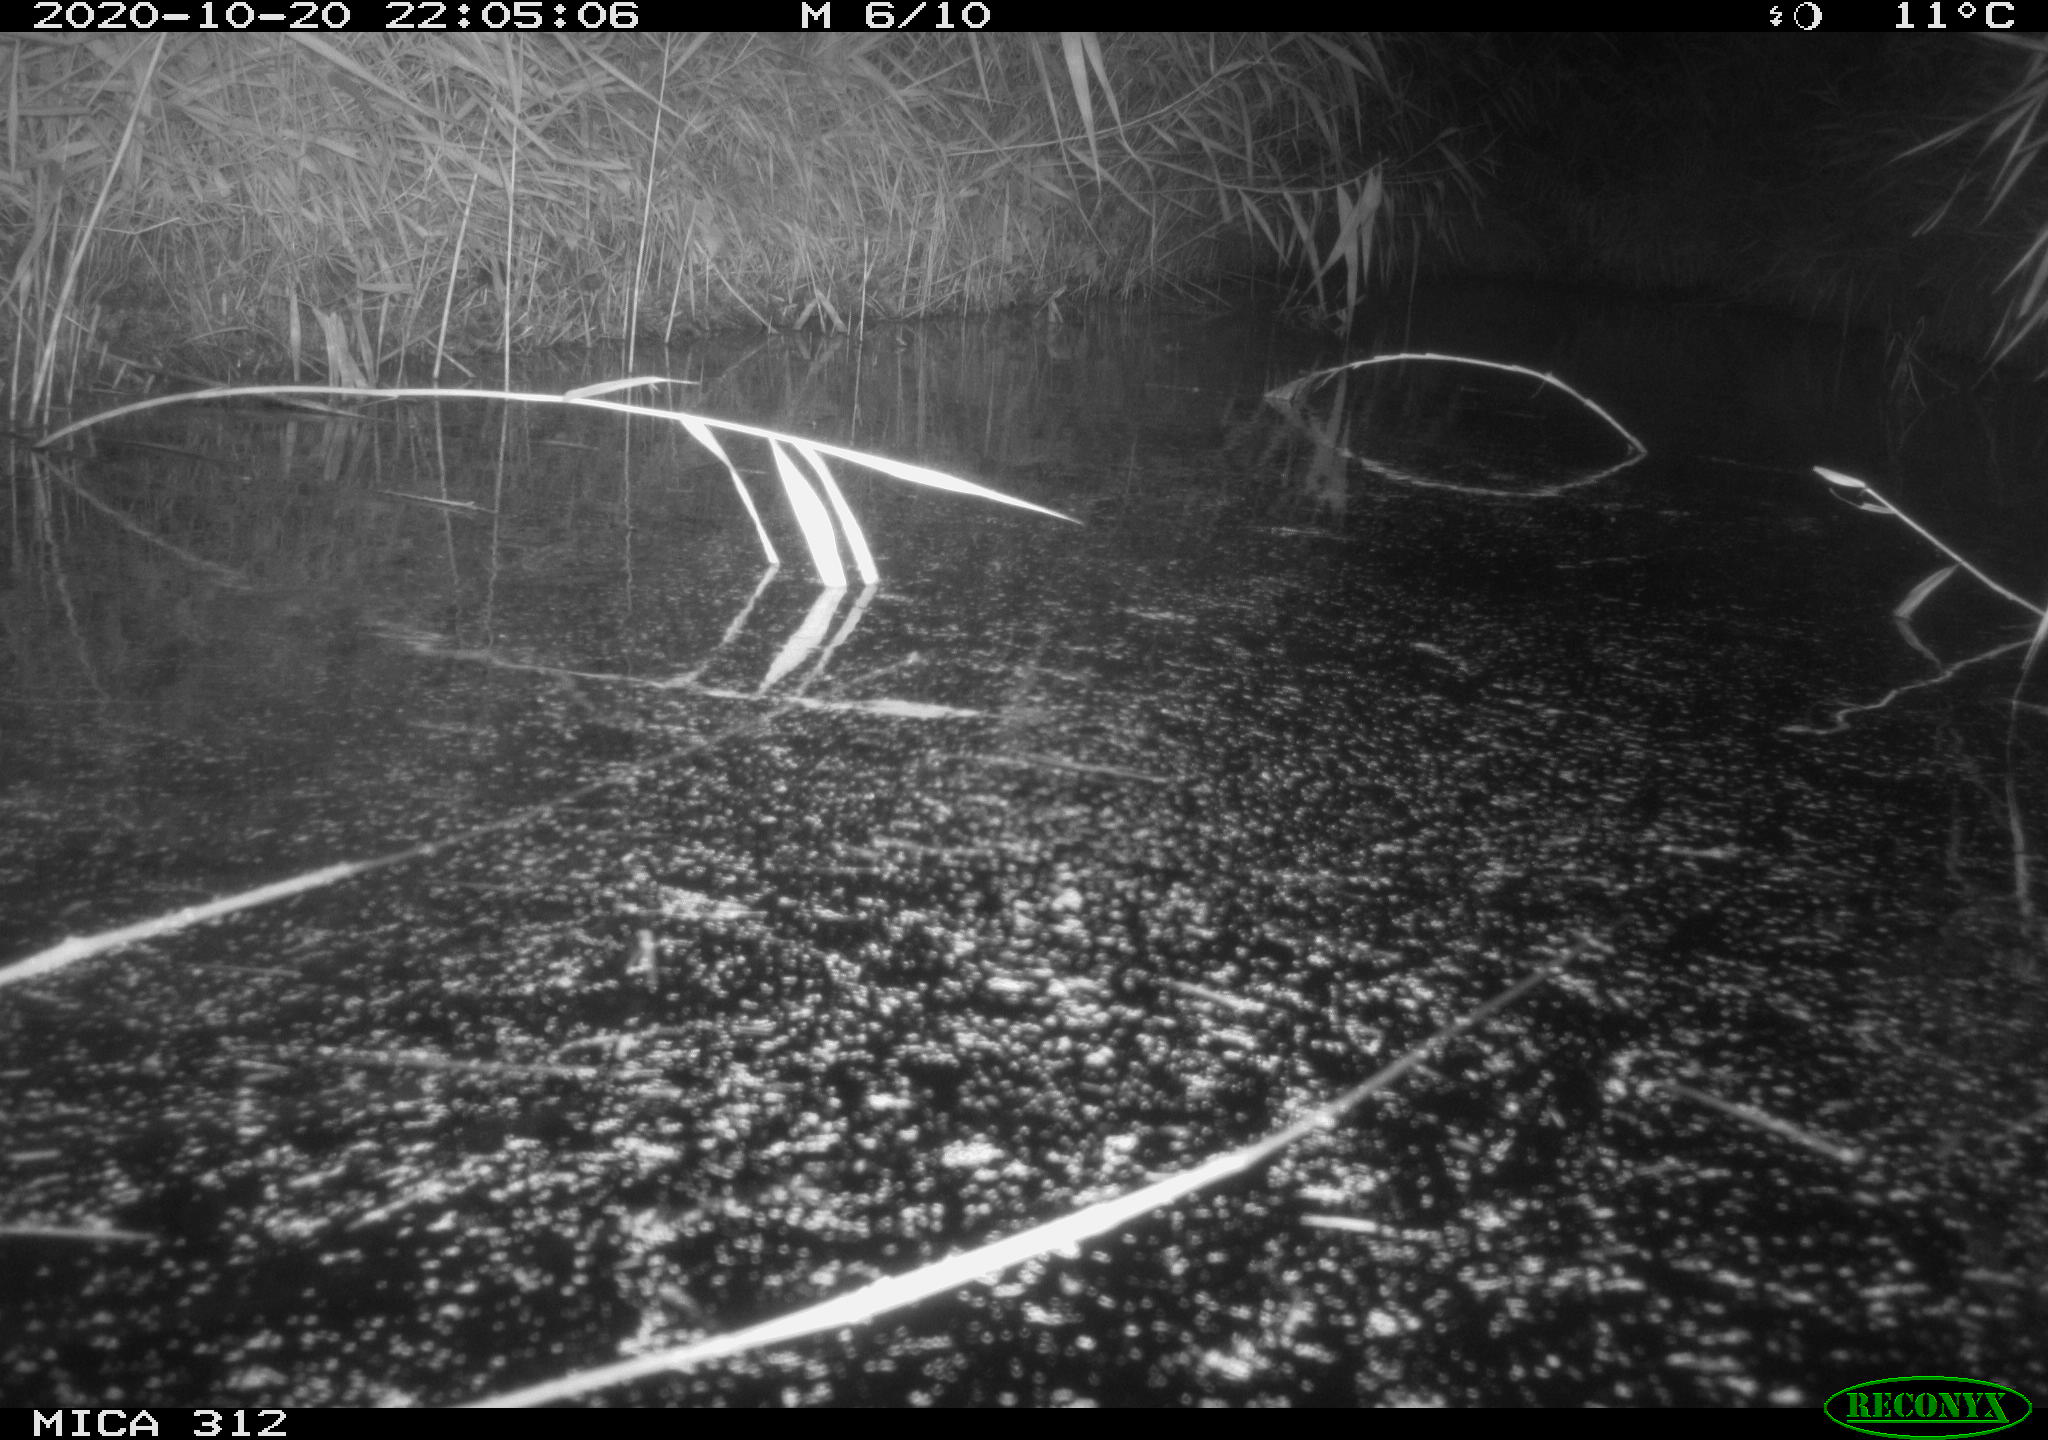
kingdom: Animalia
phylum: Chordata
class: Mammalia
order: Rodentia
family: Muridae
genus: Rattus
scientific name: Rattus norvegicus
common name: Brown rat
